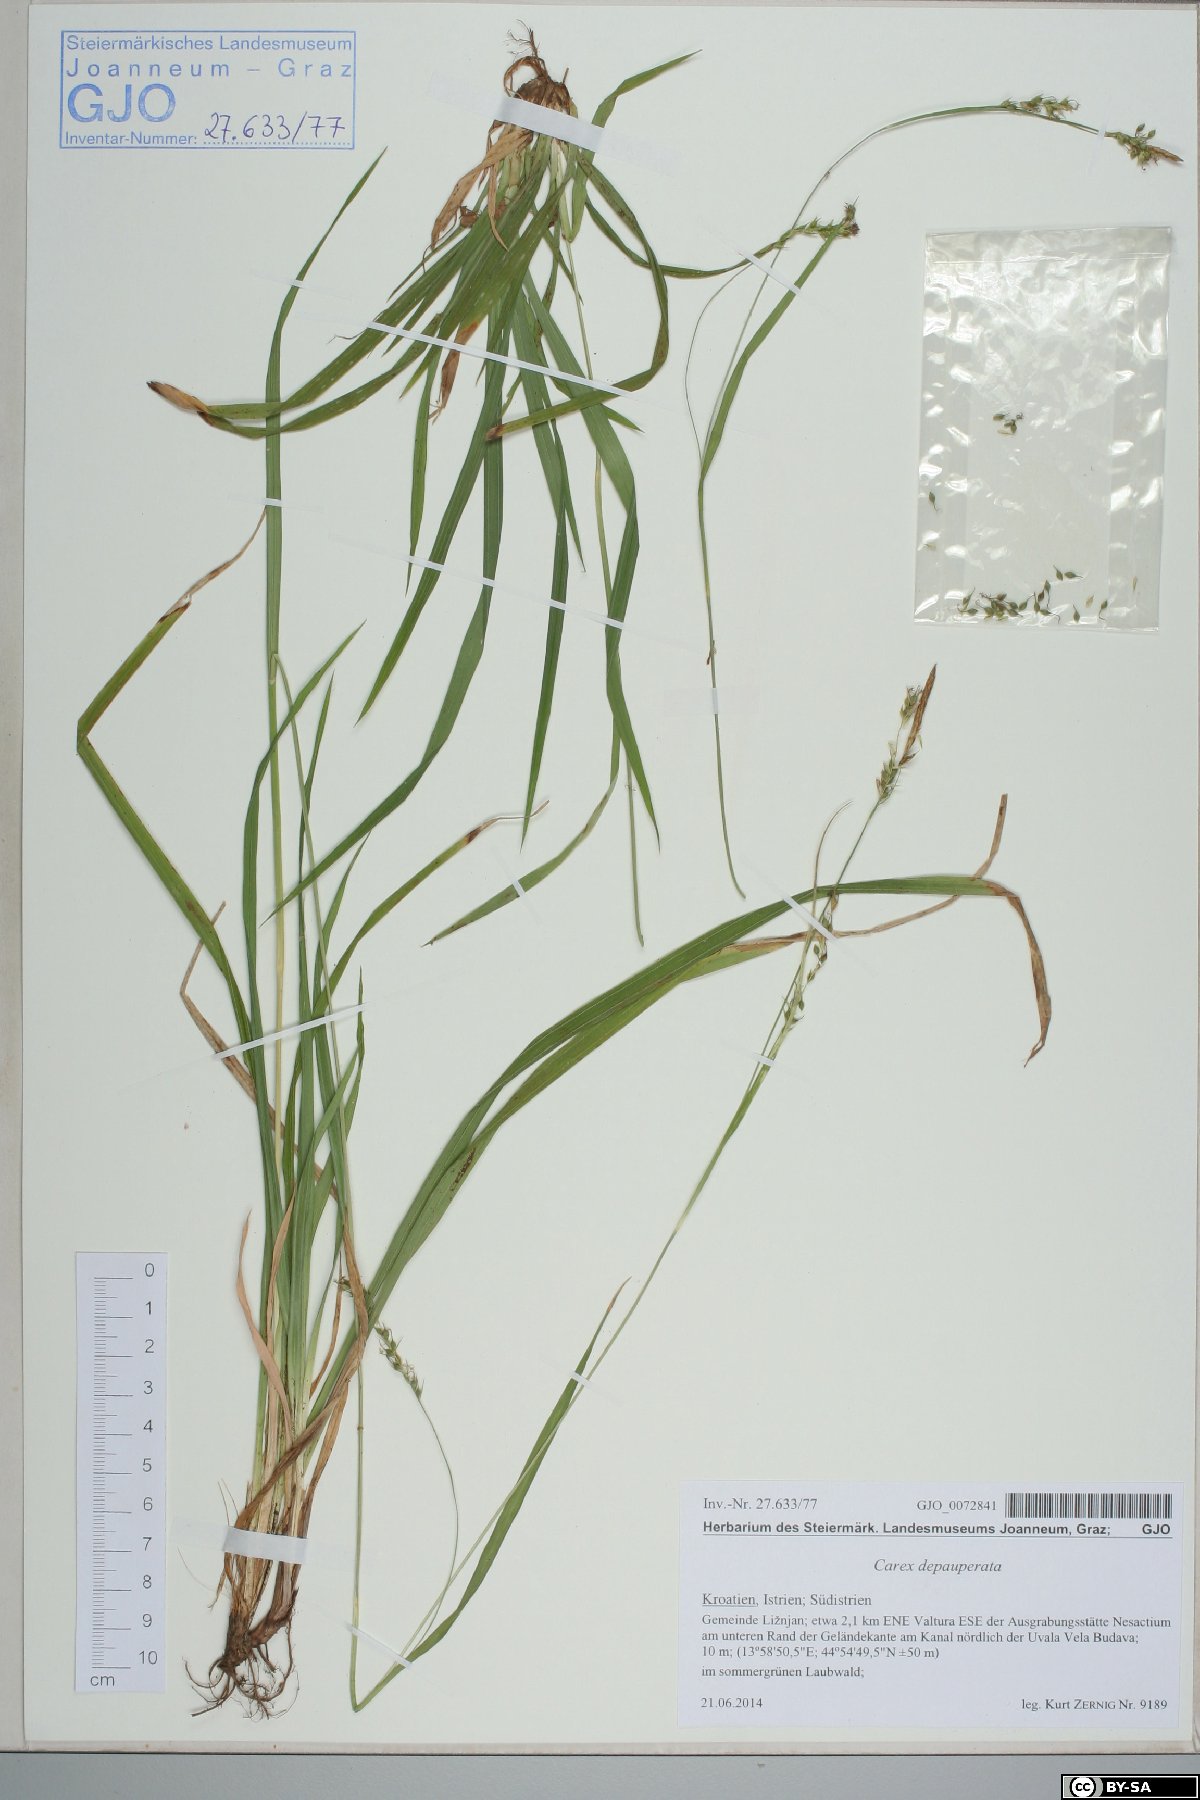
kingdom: Plantae
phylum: Tracheophyta
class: Liliopsida
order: Poales
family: Cyperaceae
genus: Carex
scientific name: Carex sylvatica
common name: Wood-sedge
